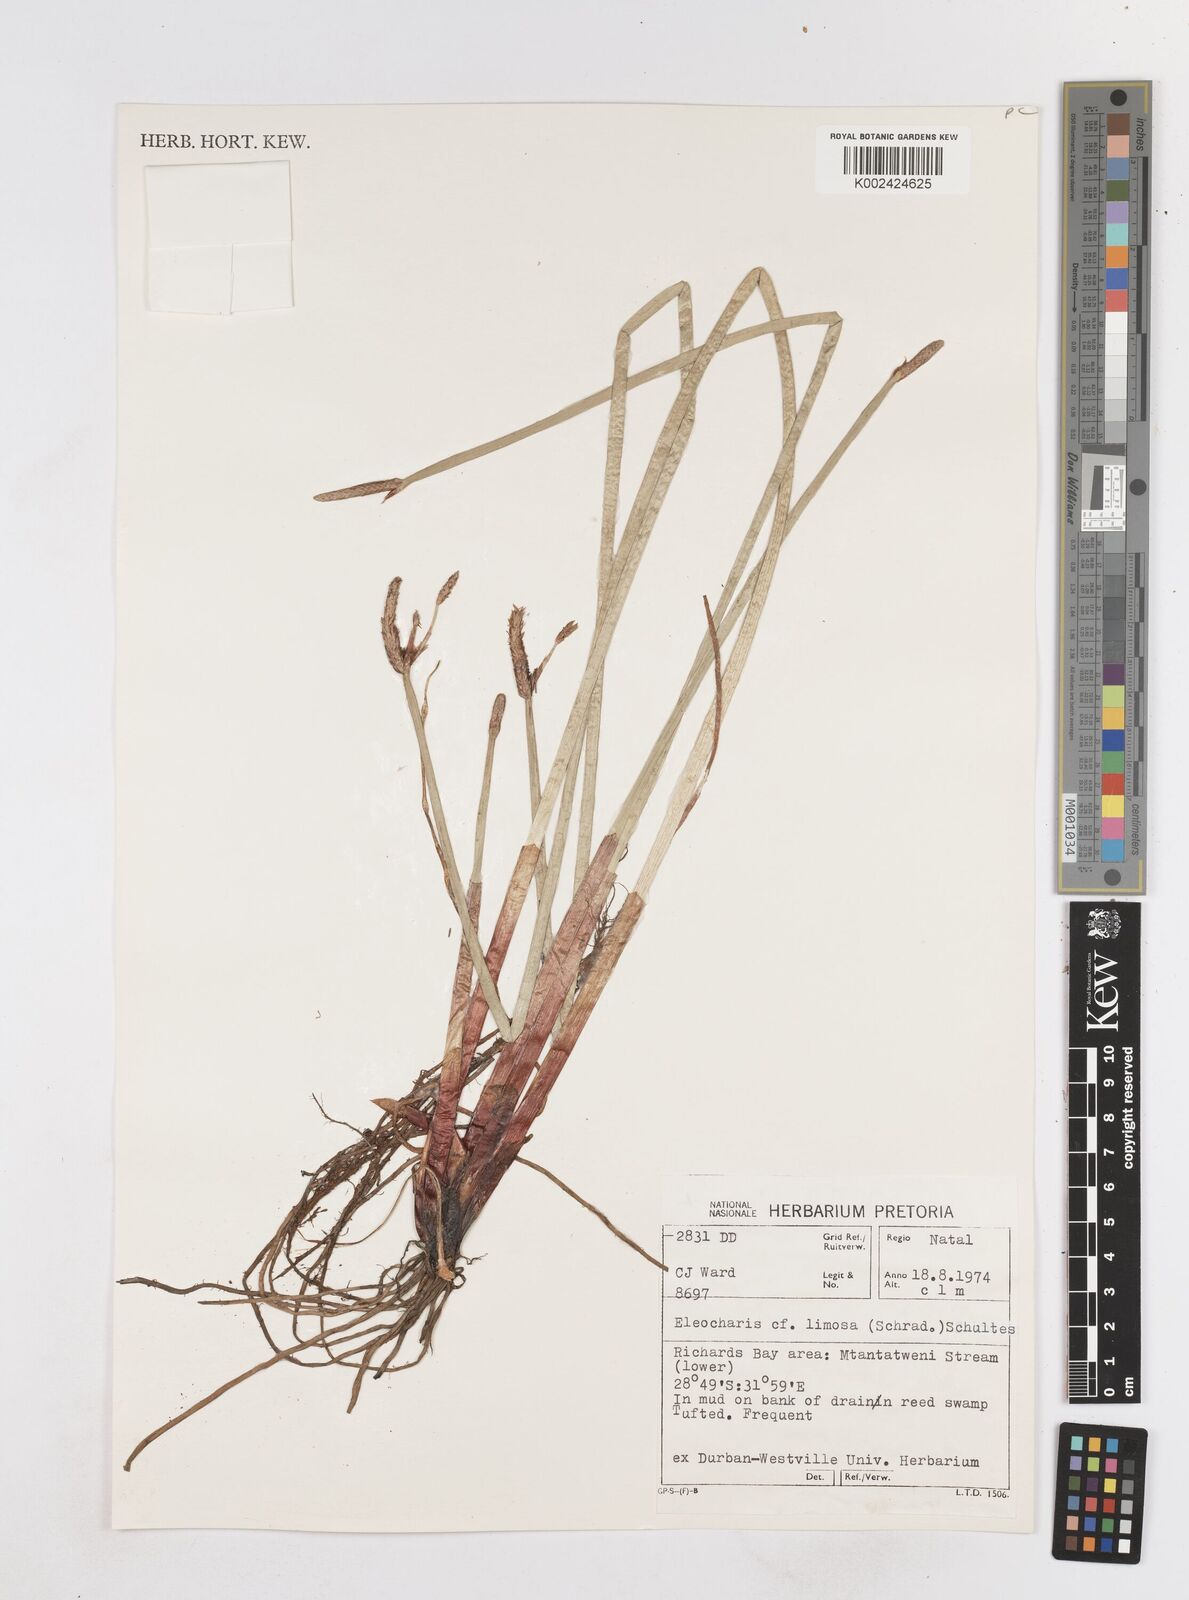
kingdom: Plantae
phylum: Tracheophyta
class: Liliopsida
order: Poales
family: Cyperaceae
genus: Eleocharis
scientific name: Eleocharis limosa
